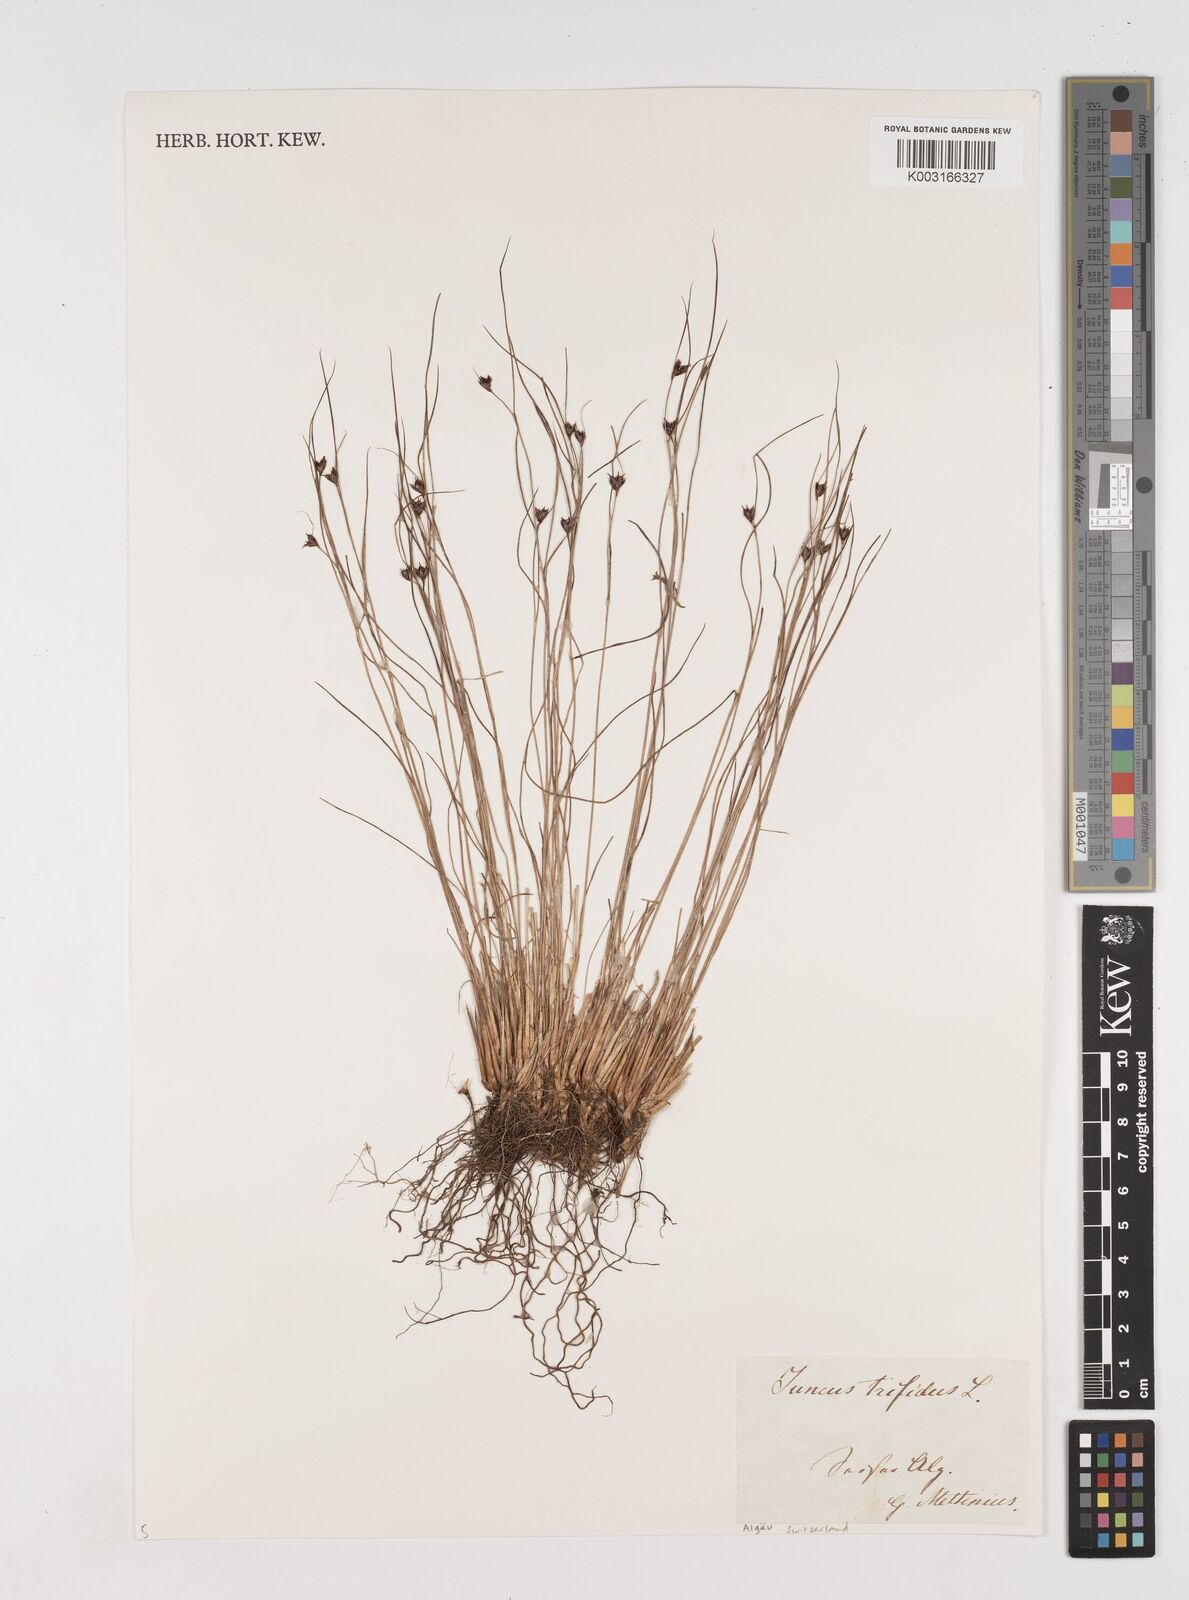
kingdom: Plantae
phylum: Tracheophyta
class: Liliopsida
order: Poales
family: Juncaceae
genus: Oreojuncus
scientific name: Oreojuncus trifidus
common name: Highland rush
